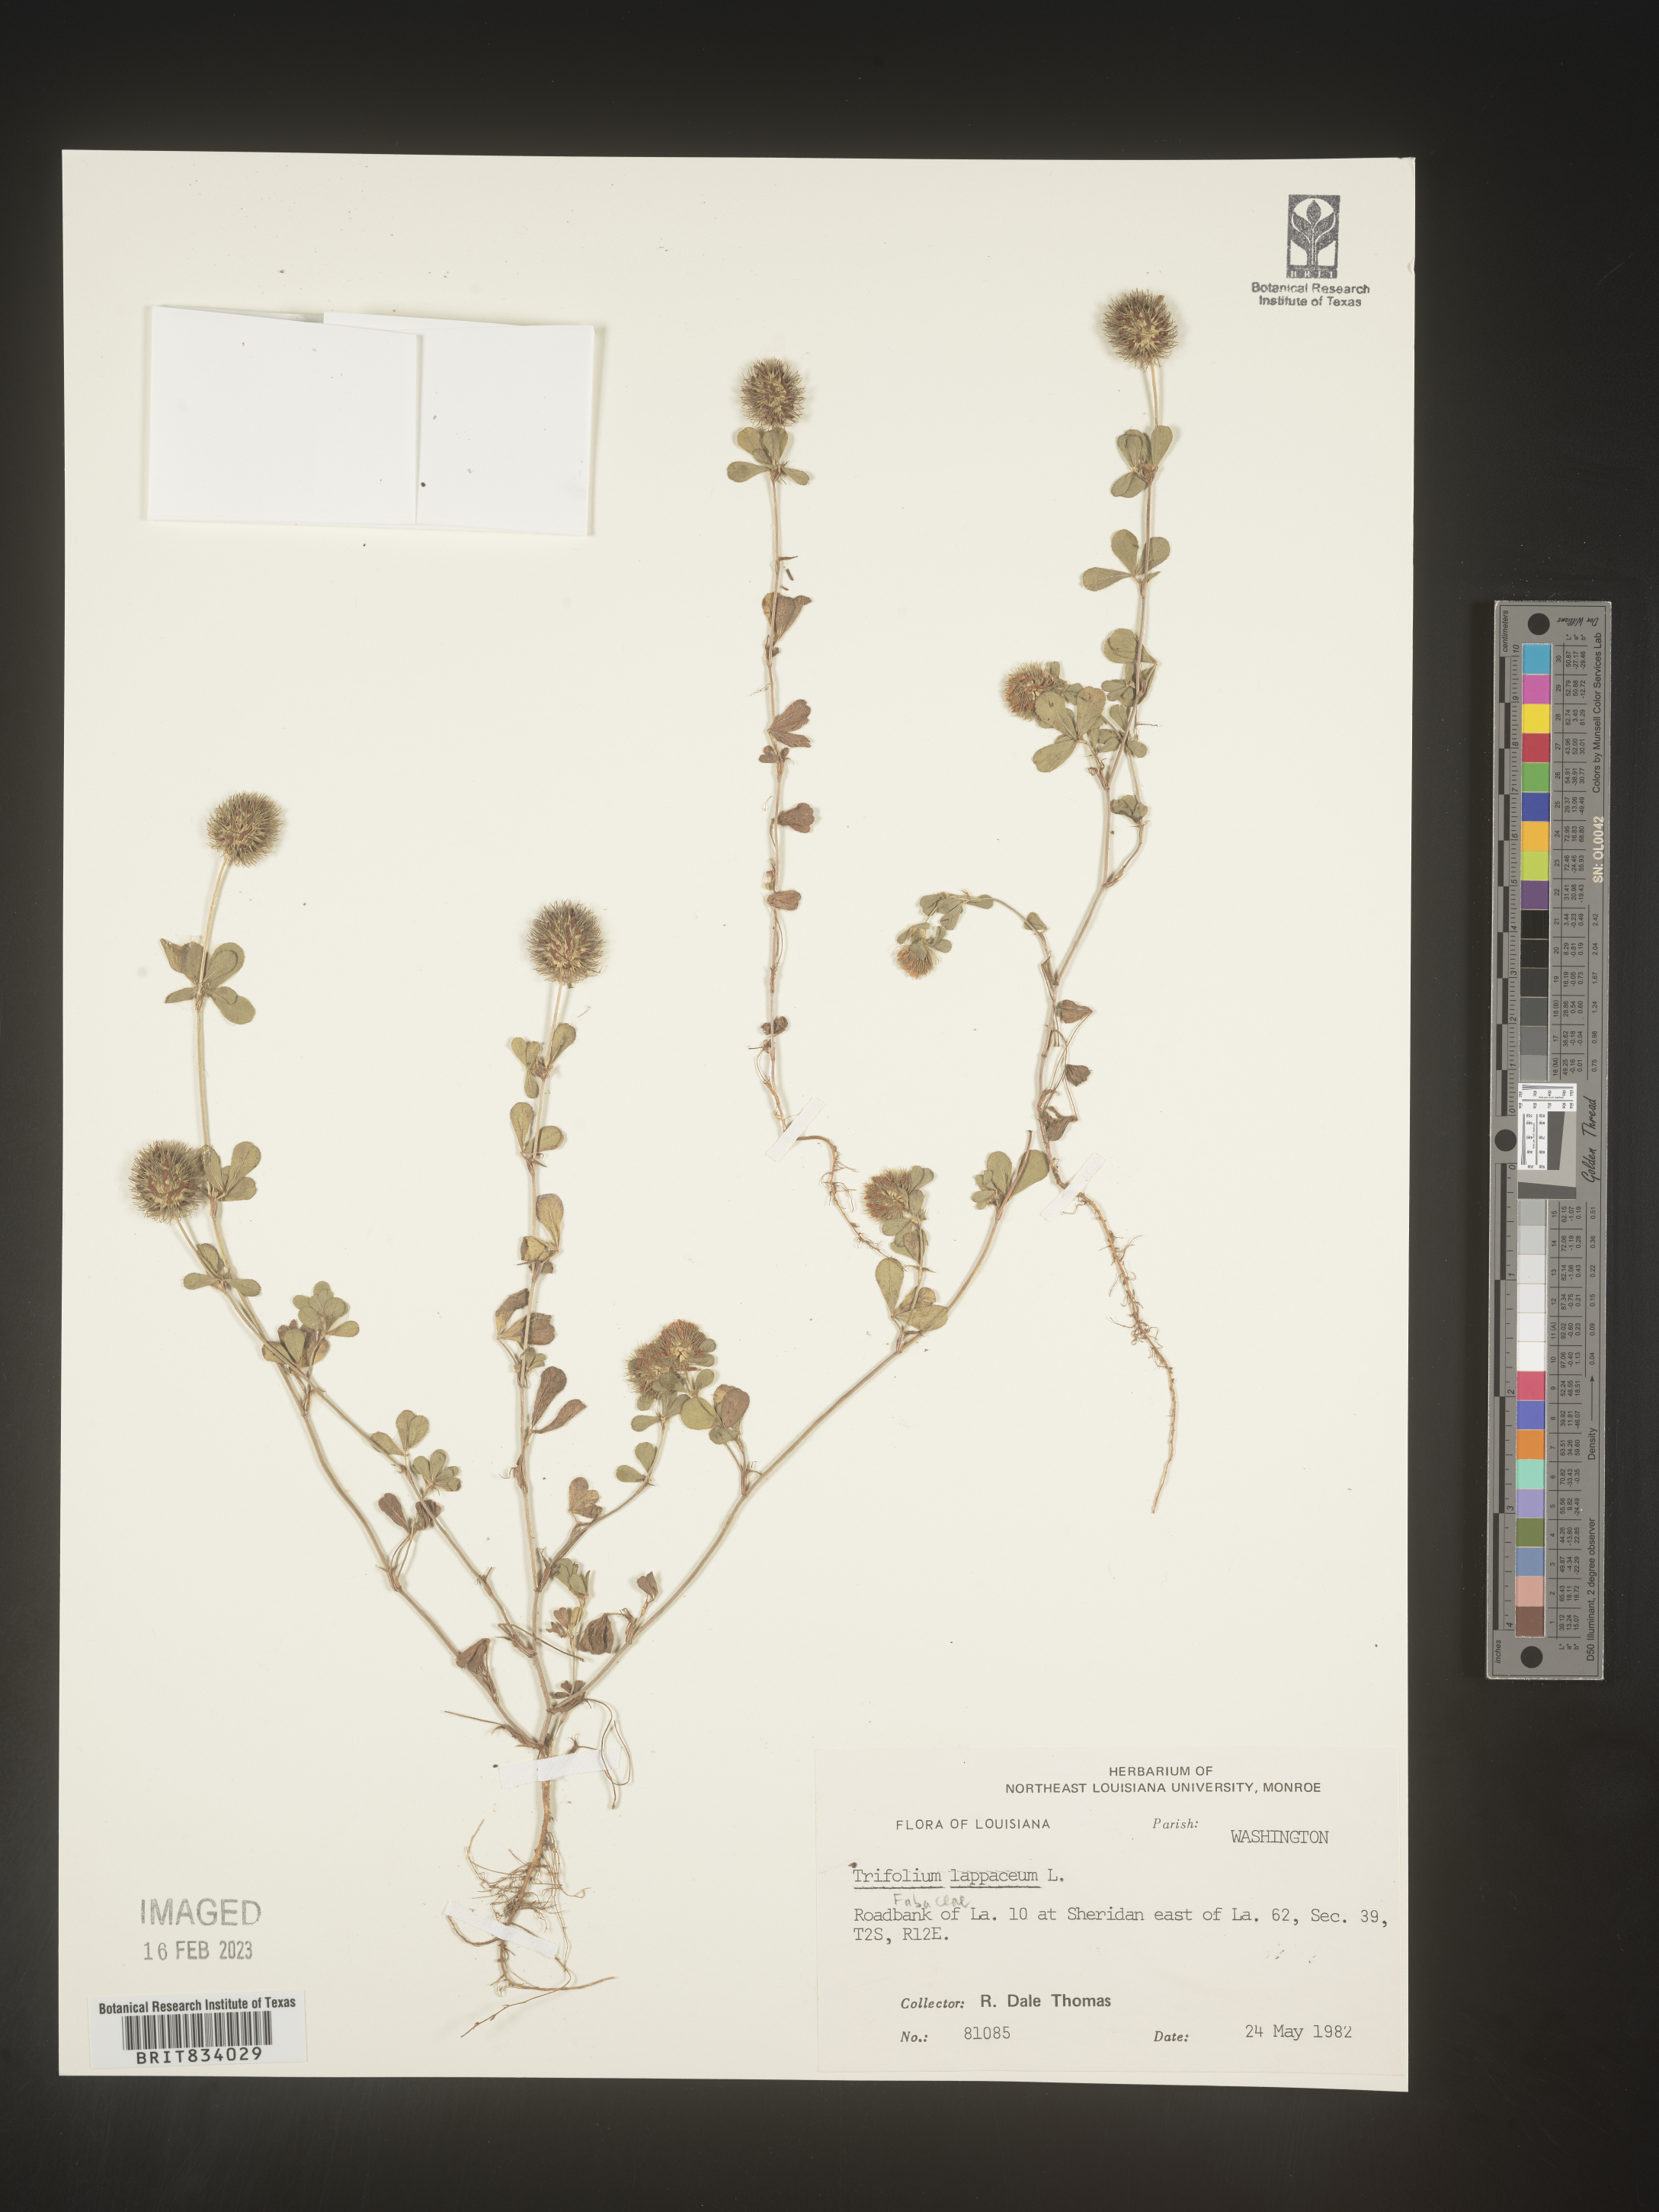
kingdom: Plantae
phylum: Tracheophyta
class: Magnoliopsida
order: Fabales
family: Fabaceae
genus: Trifolium
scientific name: Trifolium
